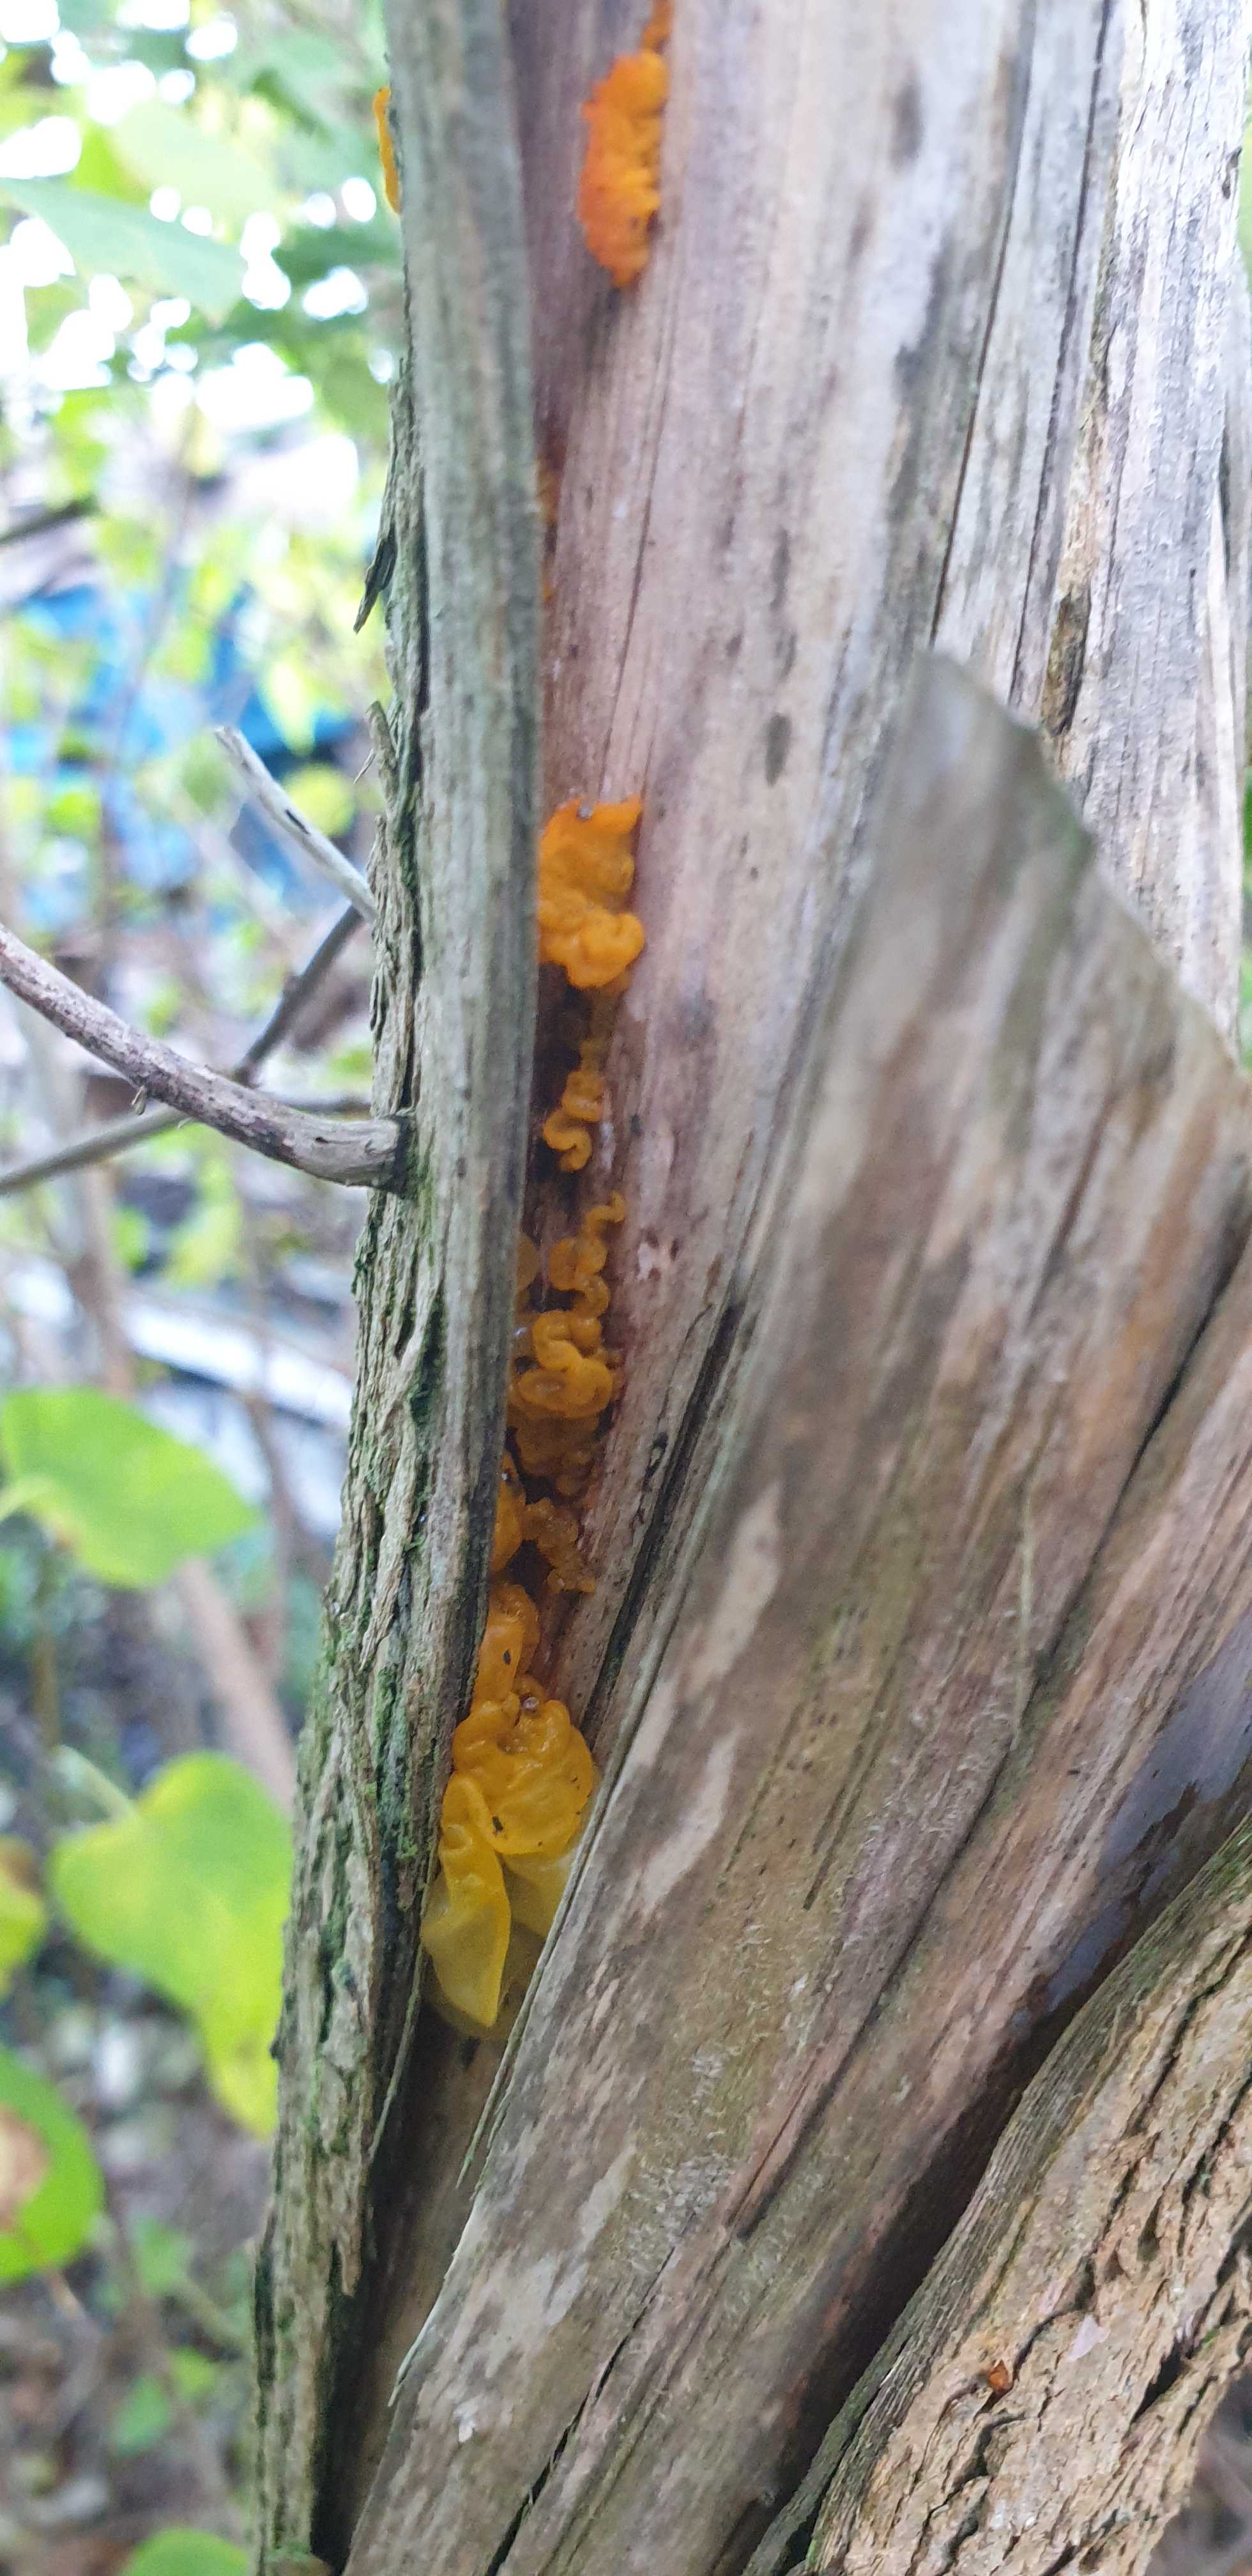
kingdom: Fungi
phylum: Basidiomycota
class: Tremellomycetes
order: Tremellales
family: Tremellaceae
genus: Tremella
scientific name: Tremella mesenterica
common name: gul bævresvamp
